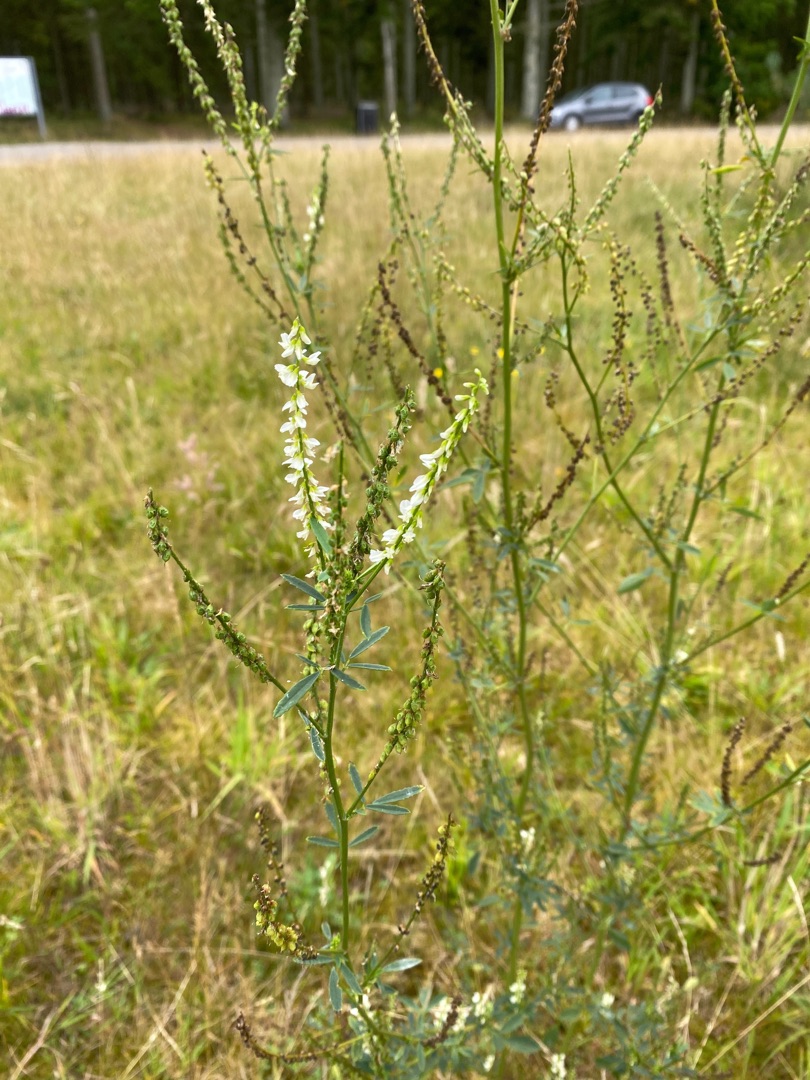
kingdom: Plantae
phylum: Tracheophyta
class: Magnoliopsida
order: Fabales
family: Fabaceae
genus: Melilotus
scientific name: Melilotus albus
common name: Hvid stenkløver
